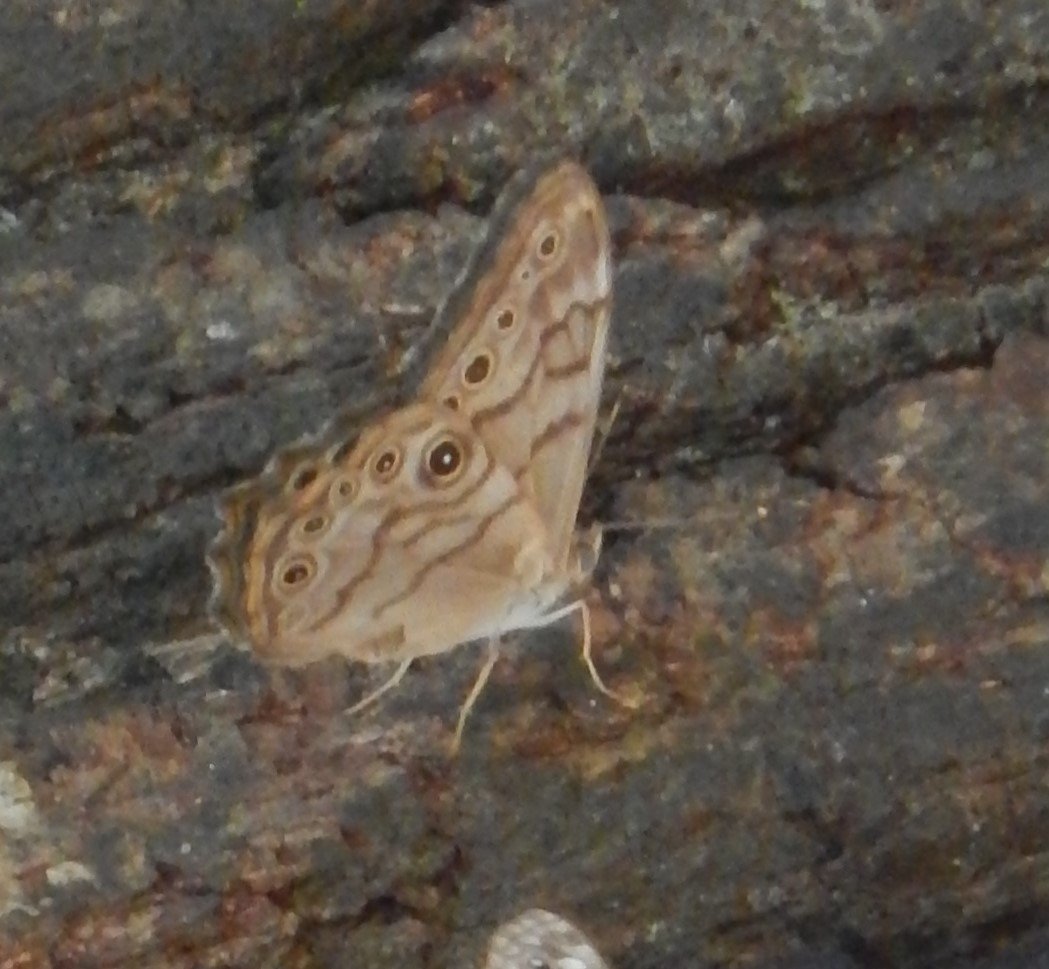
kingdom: Animalia
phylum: Arthropoda
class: Insecta
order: Lepidoptera
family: Nymphalidae
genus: Lethe
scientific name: Lethe creola
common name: Creole Pearly-Eye
